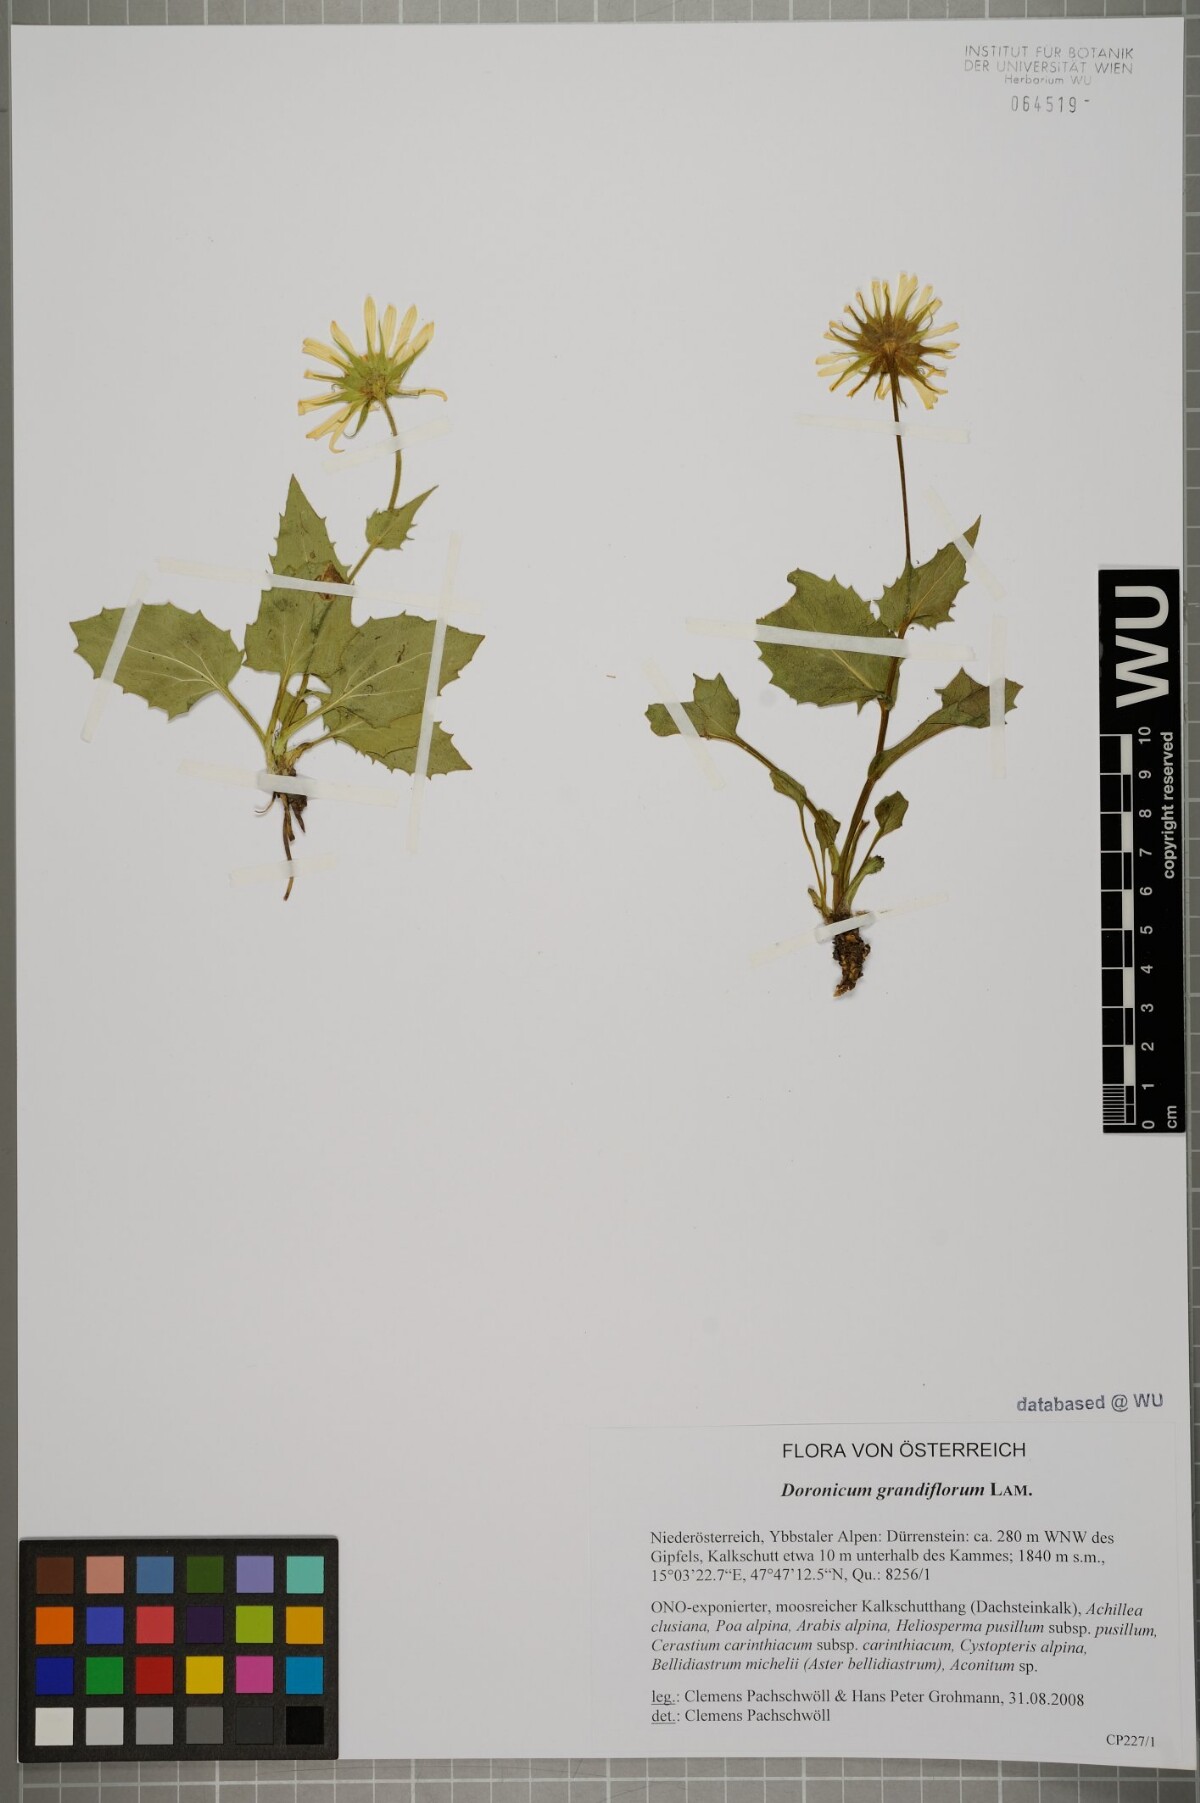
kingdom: Plantae
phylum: Tracheophyta
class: Magnoliopsida
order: Asterales
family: Asteraceae
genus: Doronicum
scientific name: Doronicum grandiflorum
